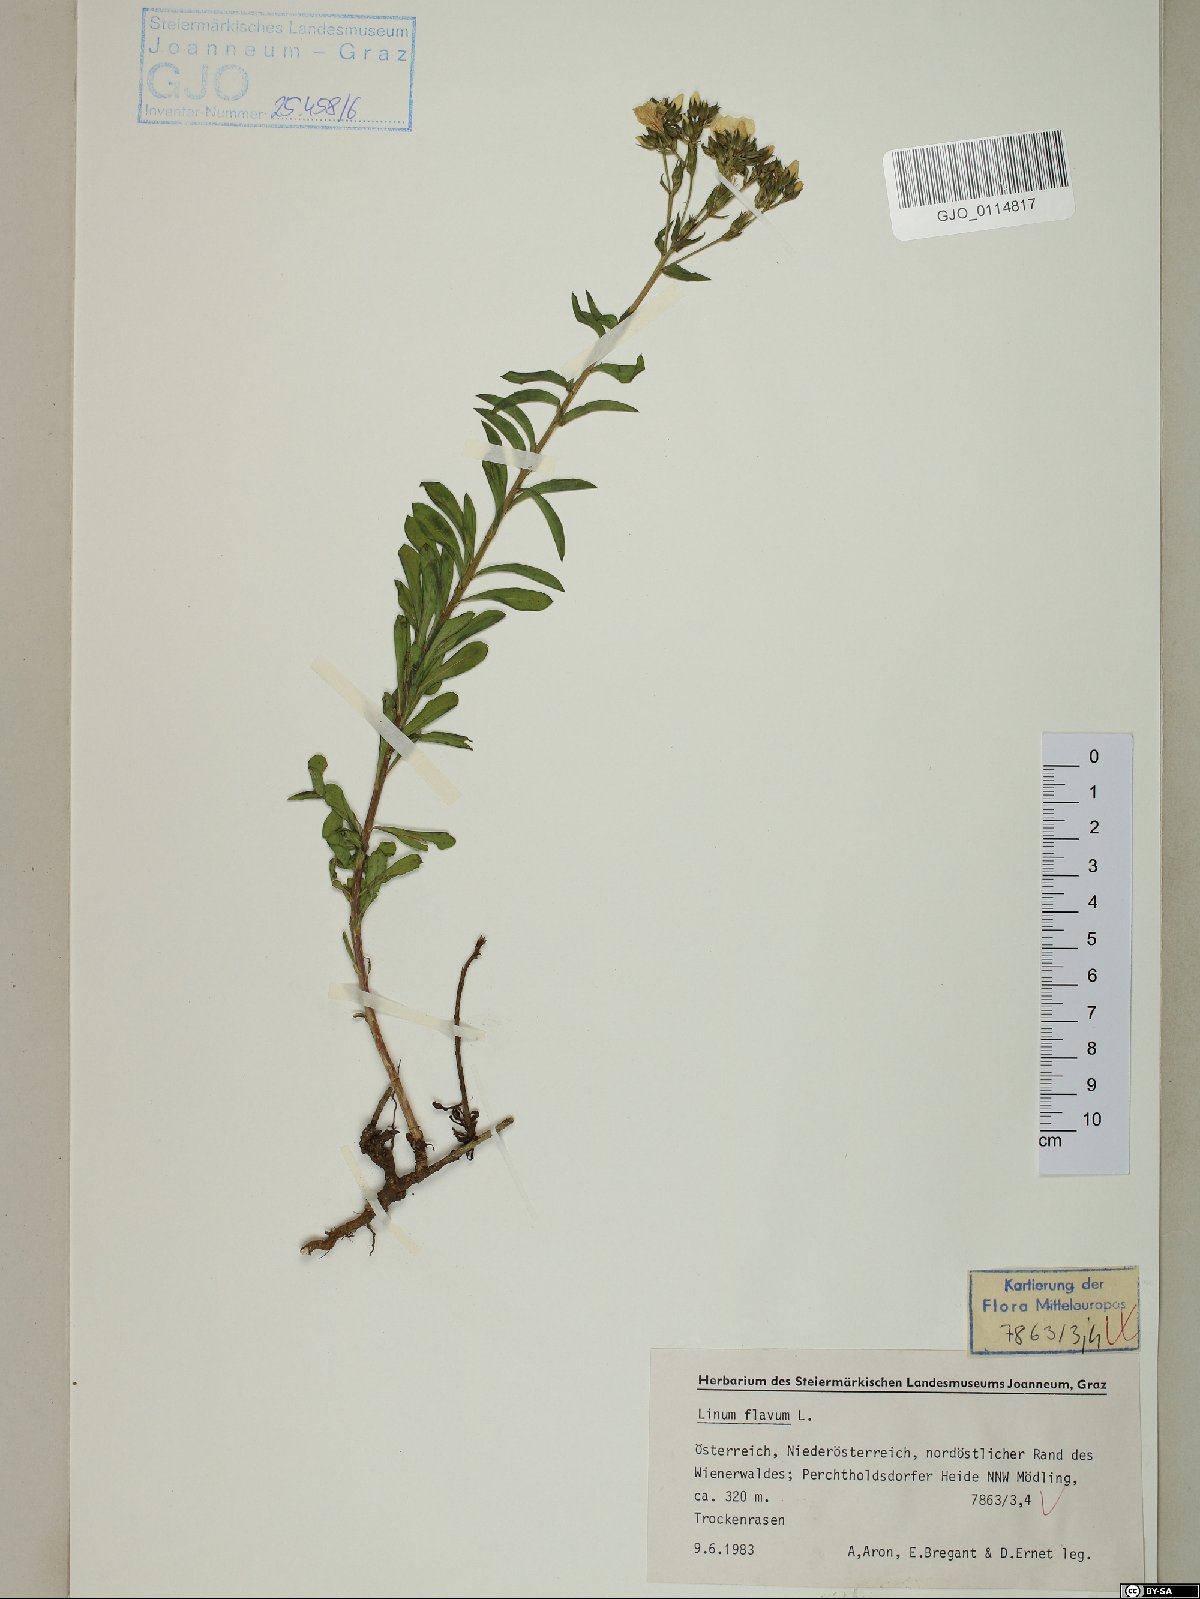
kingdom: Plantae
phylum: Tracheophyta
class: Magnoliopsida
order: Malpighiales
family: Linaceae
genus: Linum
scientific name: Linum flavum
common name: Yellow flax
